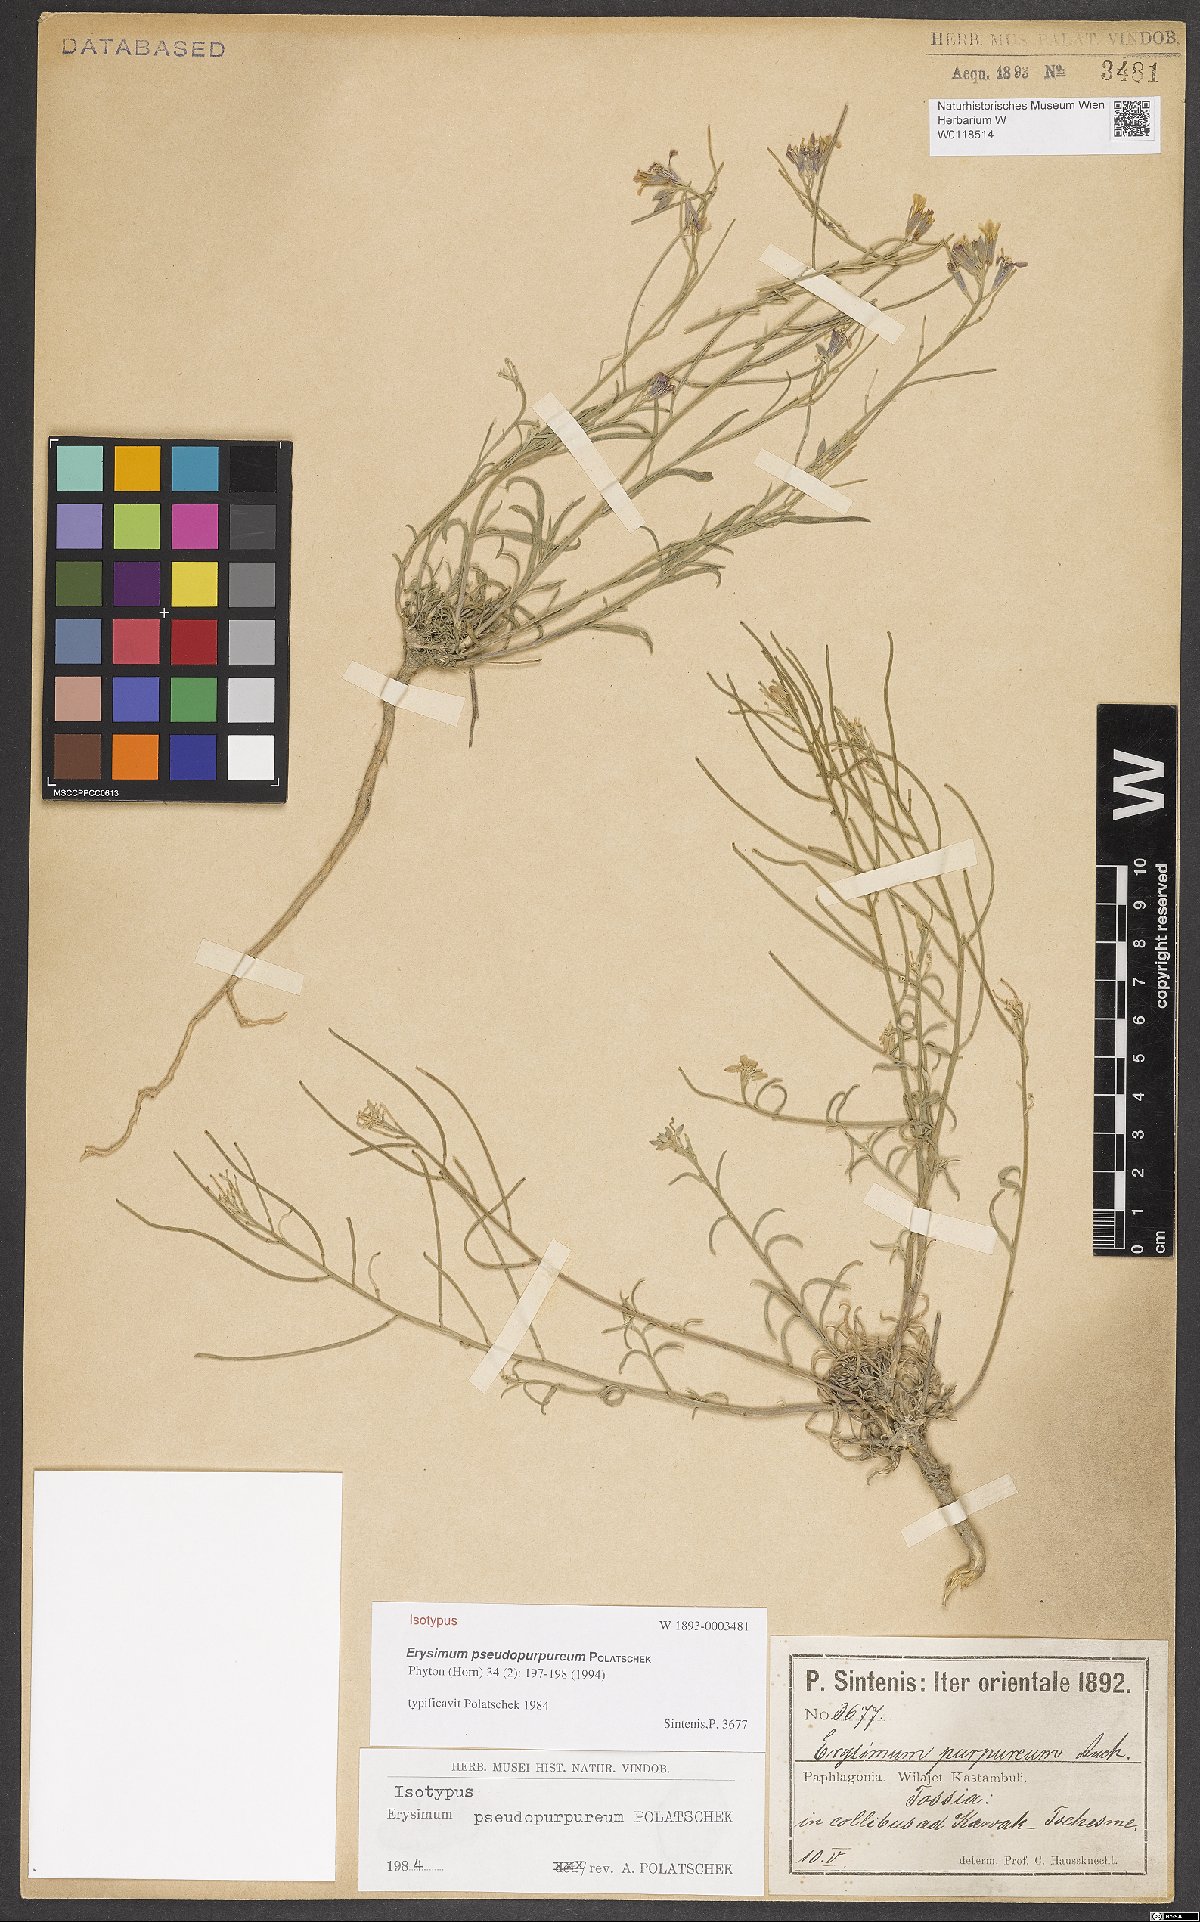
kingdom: Plantae
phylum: Tracheophyta
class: Magnoliopsida
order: Brassicales
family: Brassicaceae
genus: Erysimum
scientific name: Erysimum pseudopurpureum
